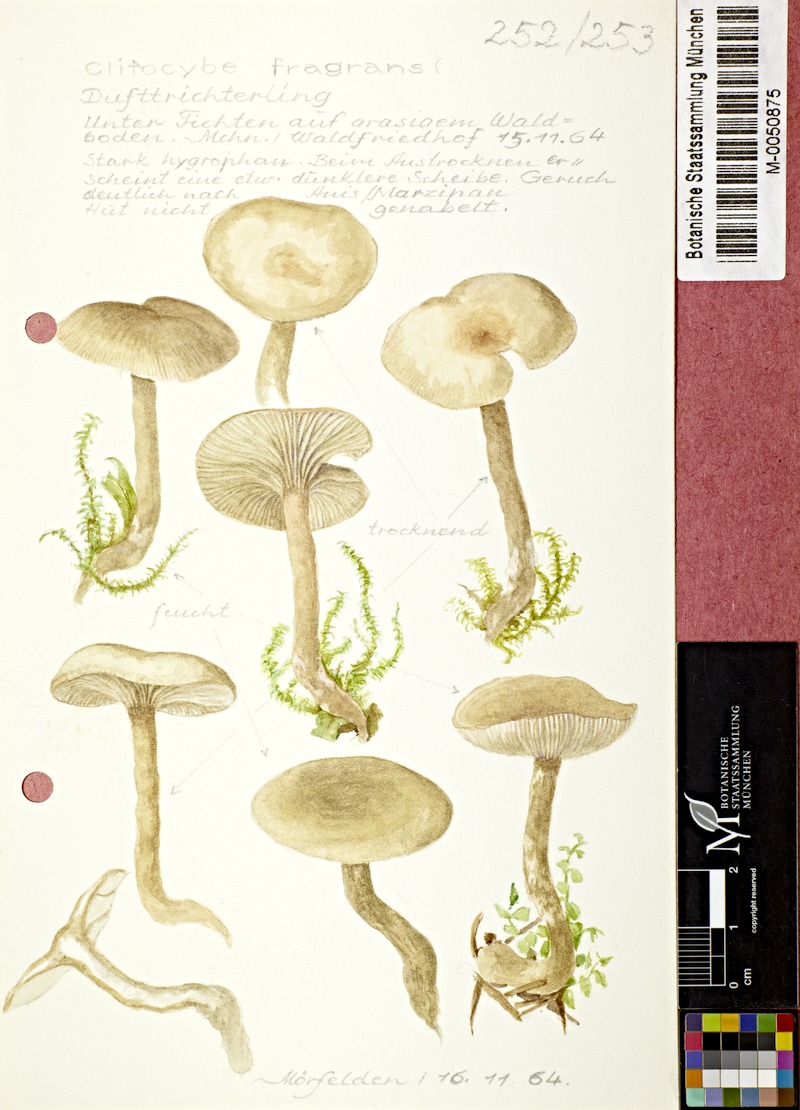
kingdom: Fungi
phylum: Basidiomycota
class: Agaricomycetes
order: Agaricales
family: Tricholomataceae
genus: Clitocybe
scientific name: Clitocybe fragrans
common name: Fragrant funnel
